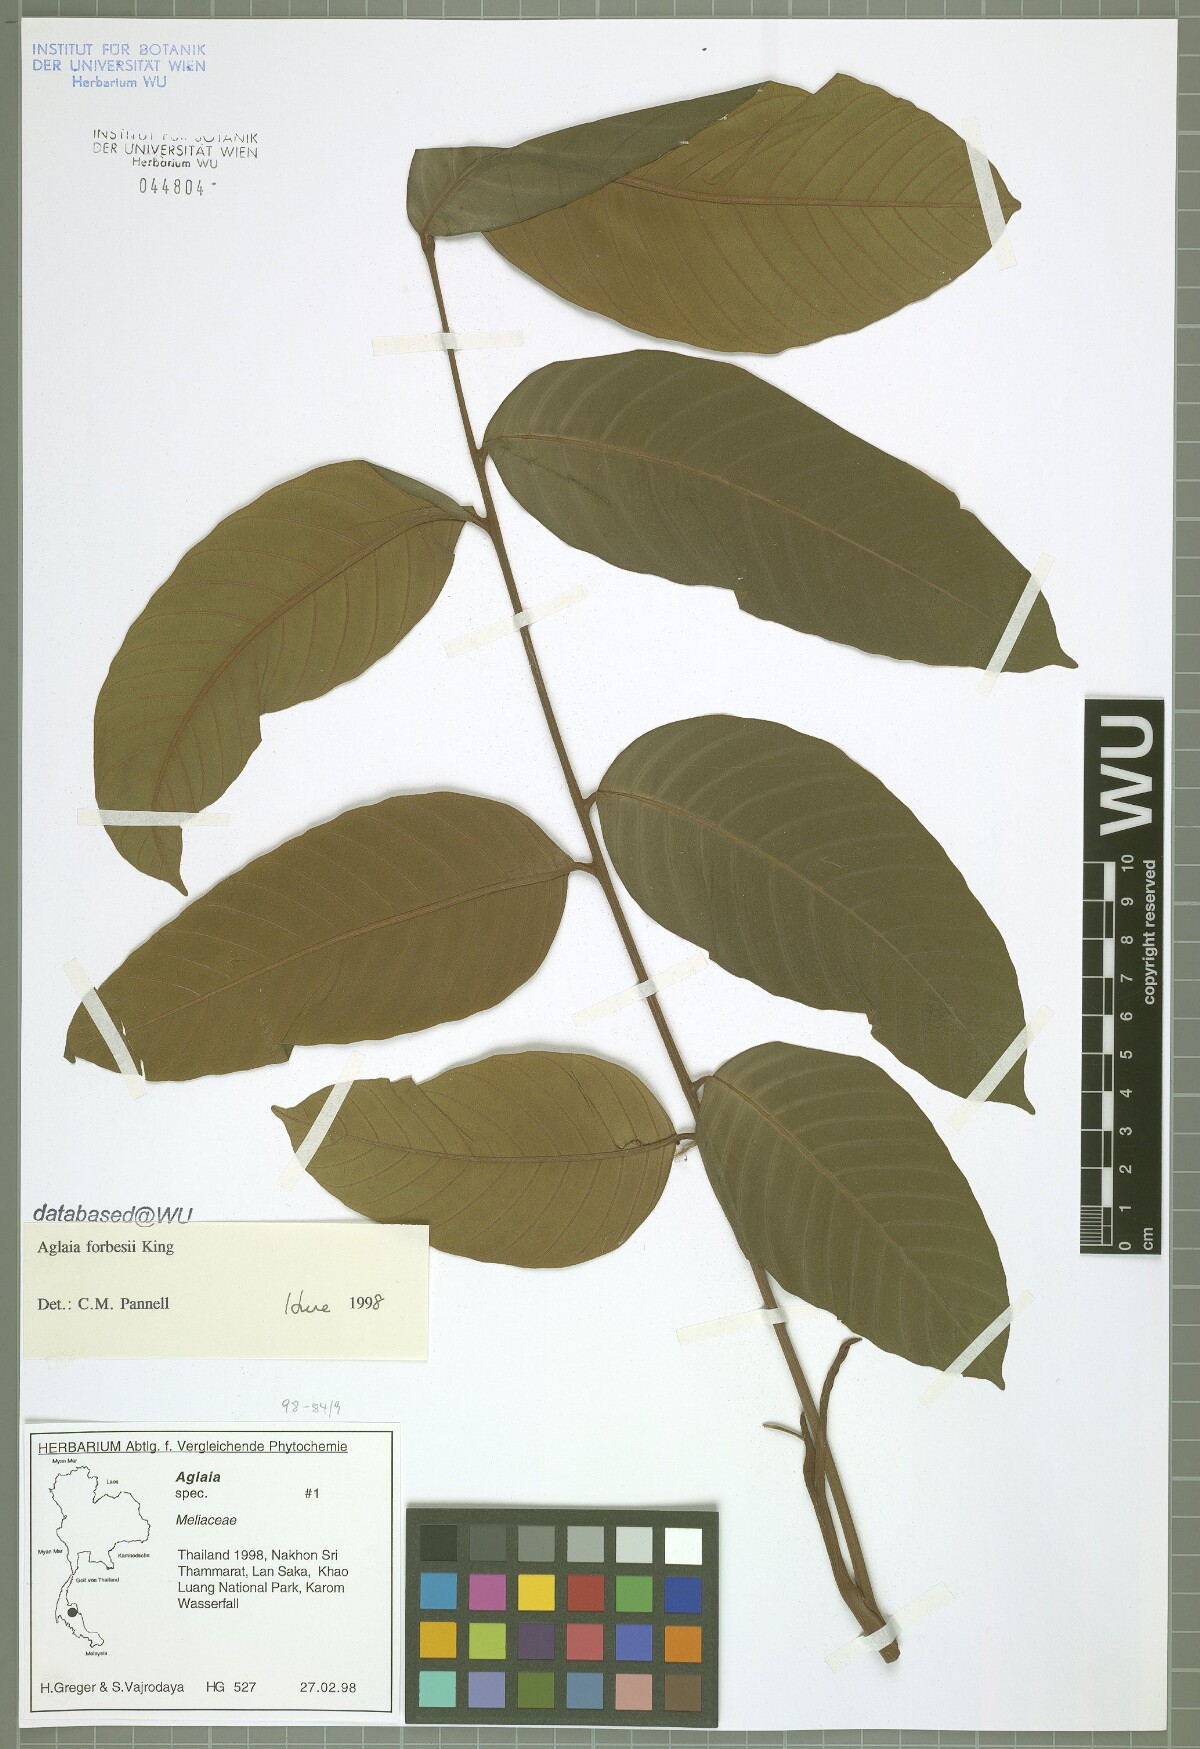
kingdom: Plantae
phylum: Tracheophyta
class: Magnoliopsida
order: Sapindales
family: Meliaceae
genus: Aglaia
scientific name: Aglaia forbesii
